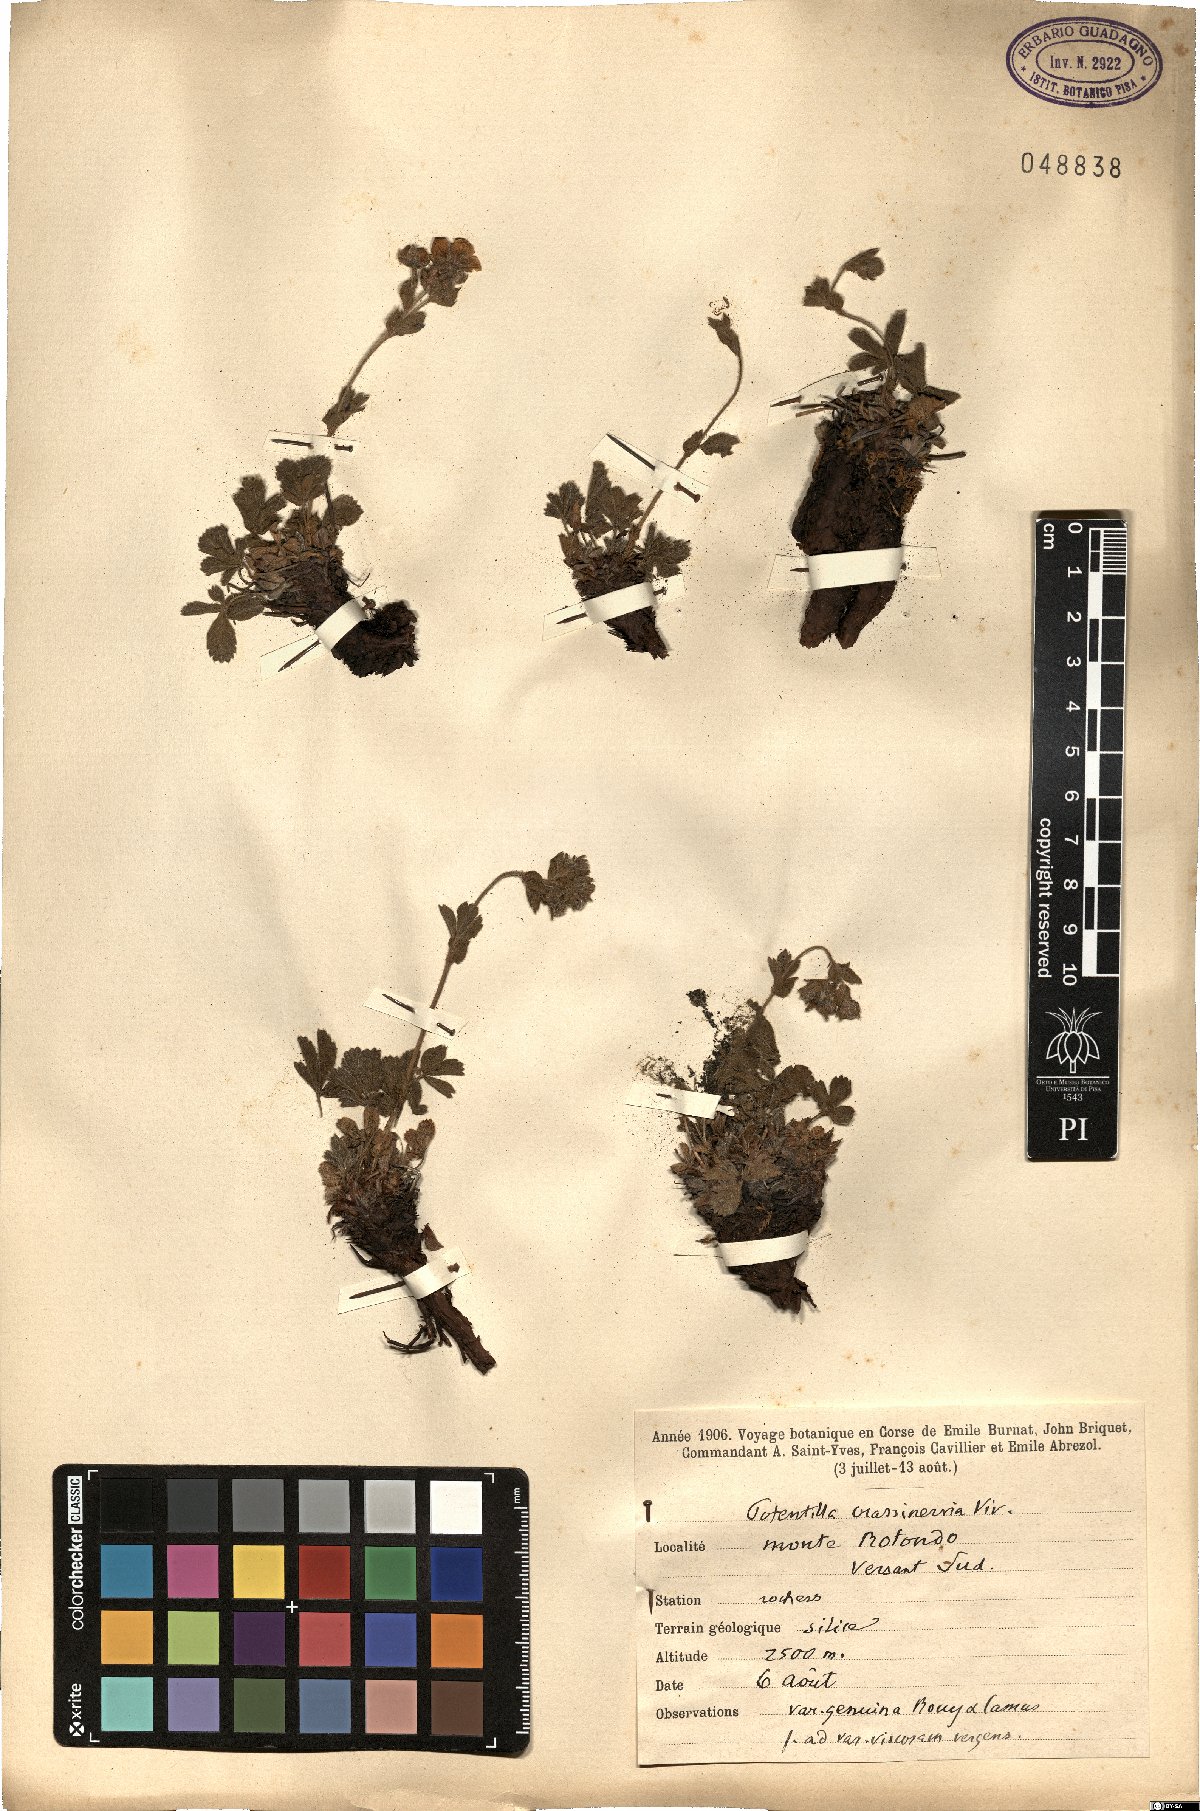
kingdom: Plantae
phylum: Tracheophyta
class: Magnoliopsida
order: Rosales
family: Rosaceae
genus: Potentilla
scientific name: Potentilla crassinervia
